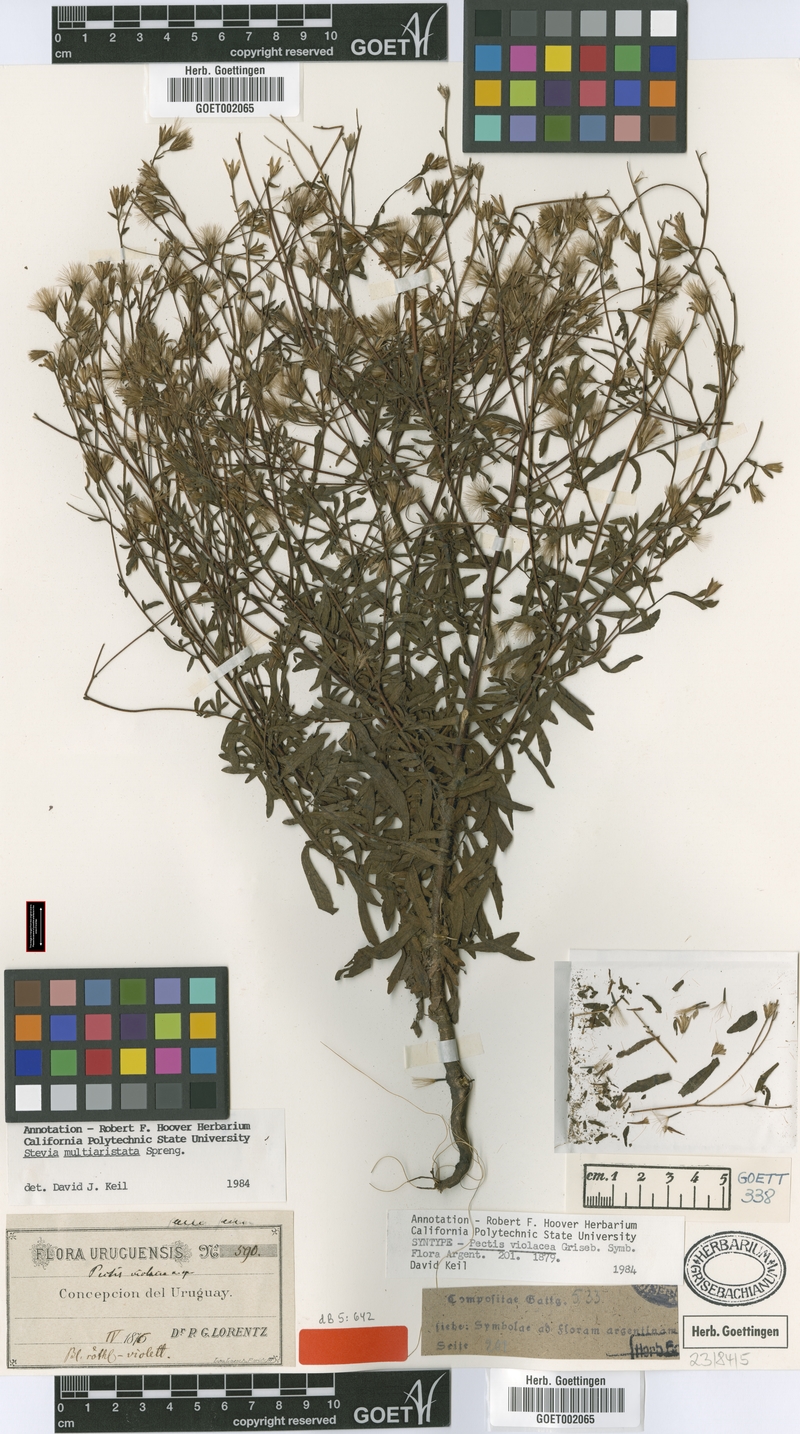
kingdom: Plantae
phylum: Tracheophyta
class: Magnoliopsida
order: Asterales
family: Asteraceae
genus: Stevia
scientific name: Stevia multiaristata
